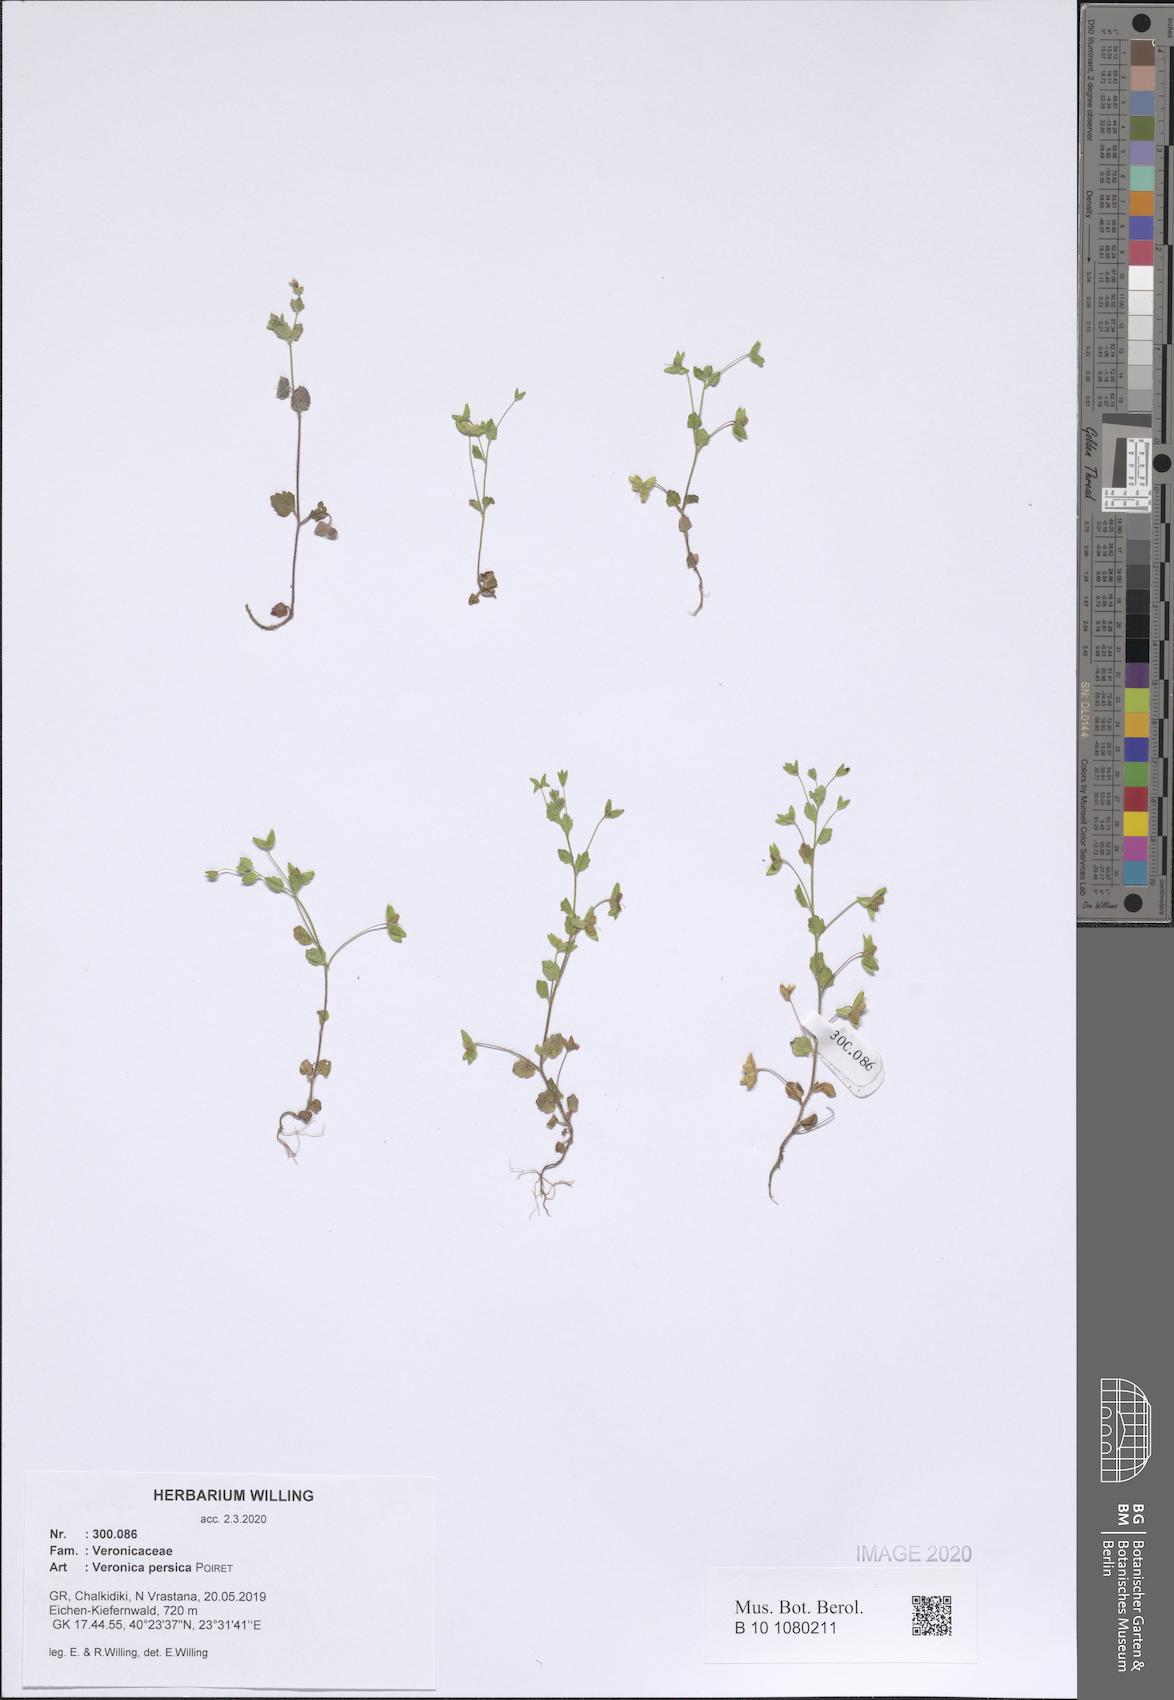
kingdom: Plantae
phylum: Tracheophyta
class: Magnoliopsida
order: Lamiales
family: Plantaginaceae
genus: Veronica
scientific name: Veronica persica
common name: Common field-speedwell
